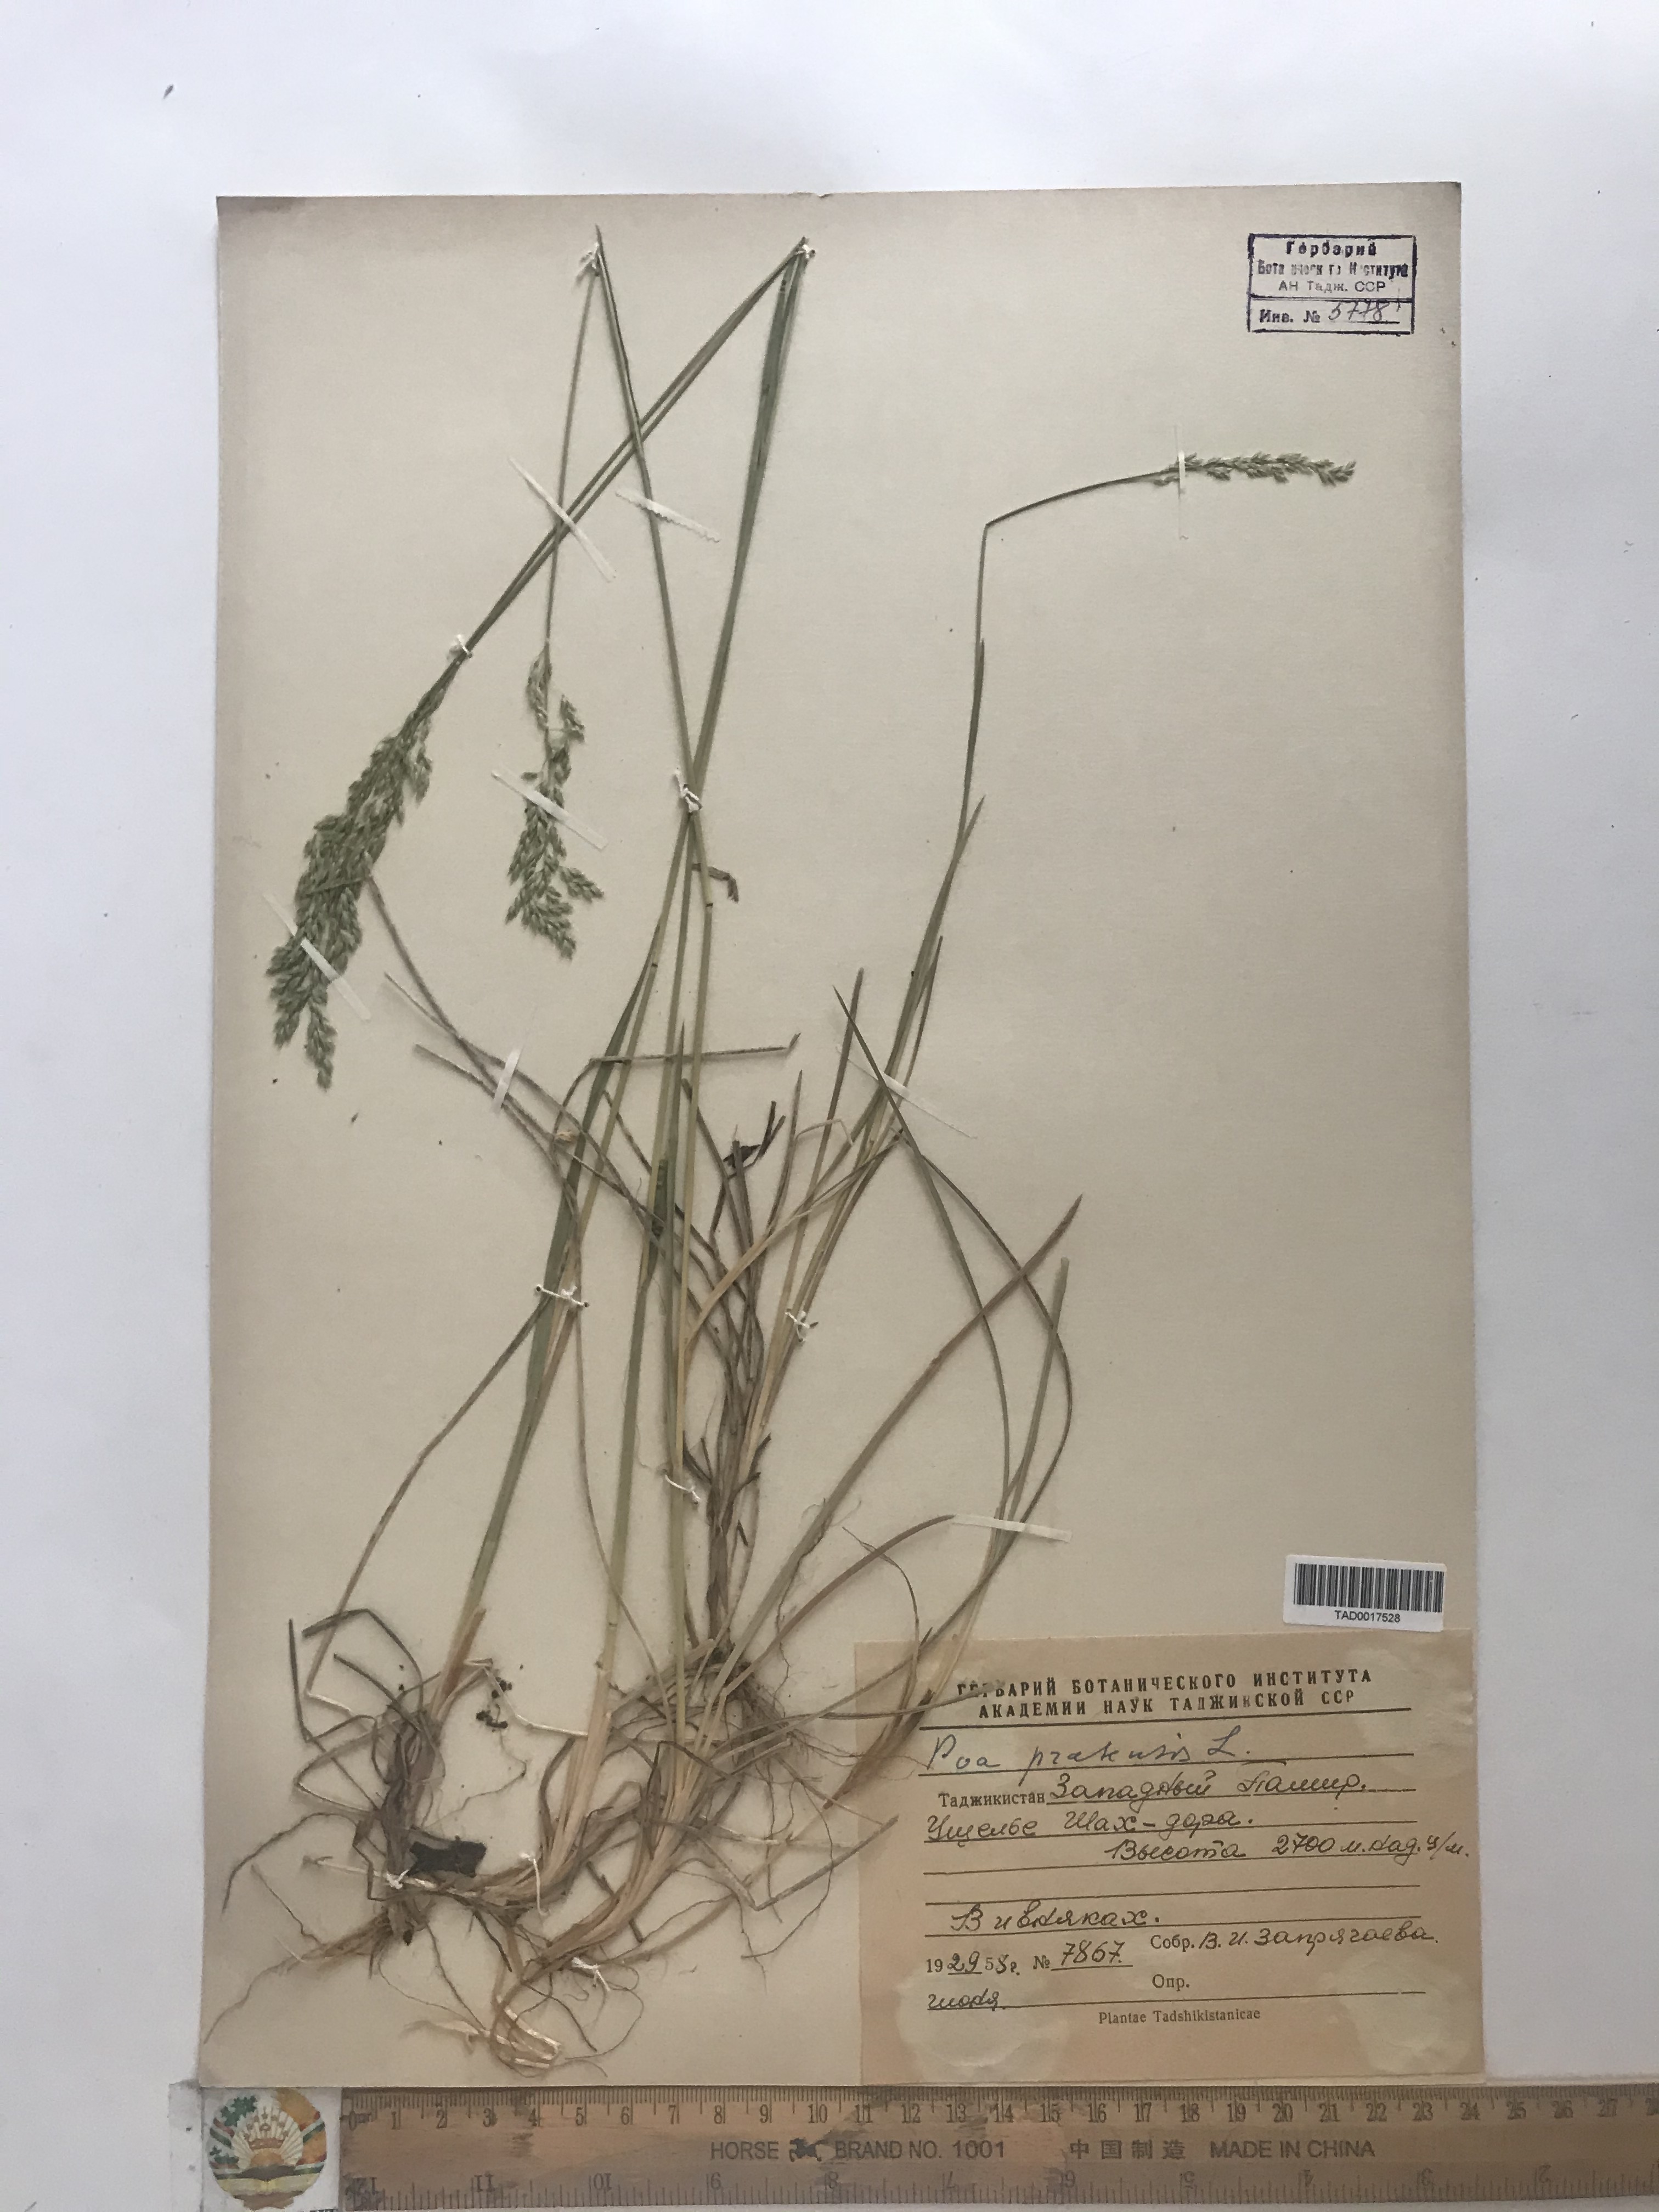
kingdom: Plantae
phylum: Tracheophyta
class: Liliopsida
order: Poales
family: Poaceae
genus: Poa
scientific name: Poa pratensis
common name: Kentucky bluegrass
